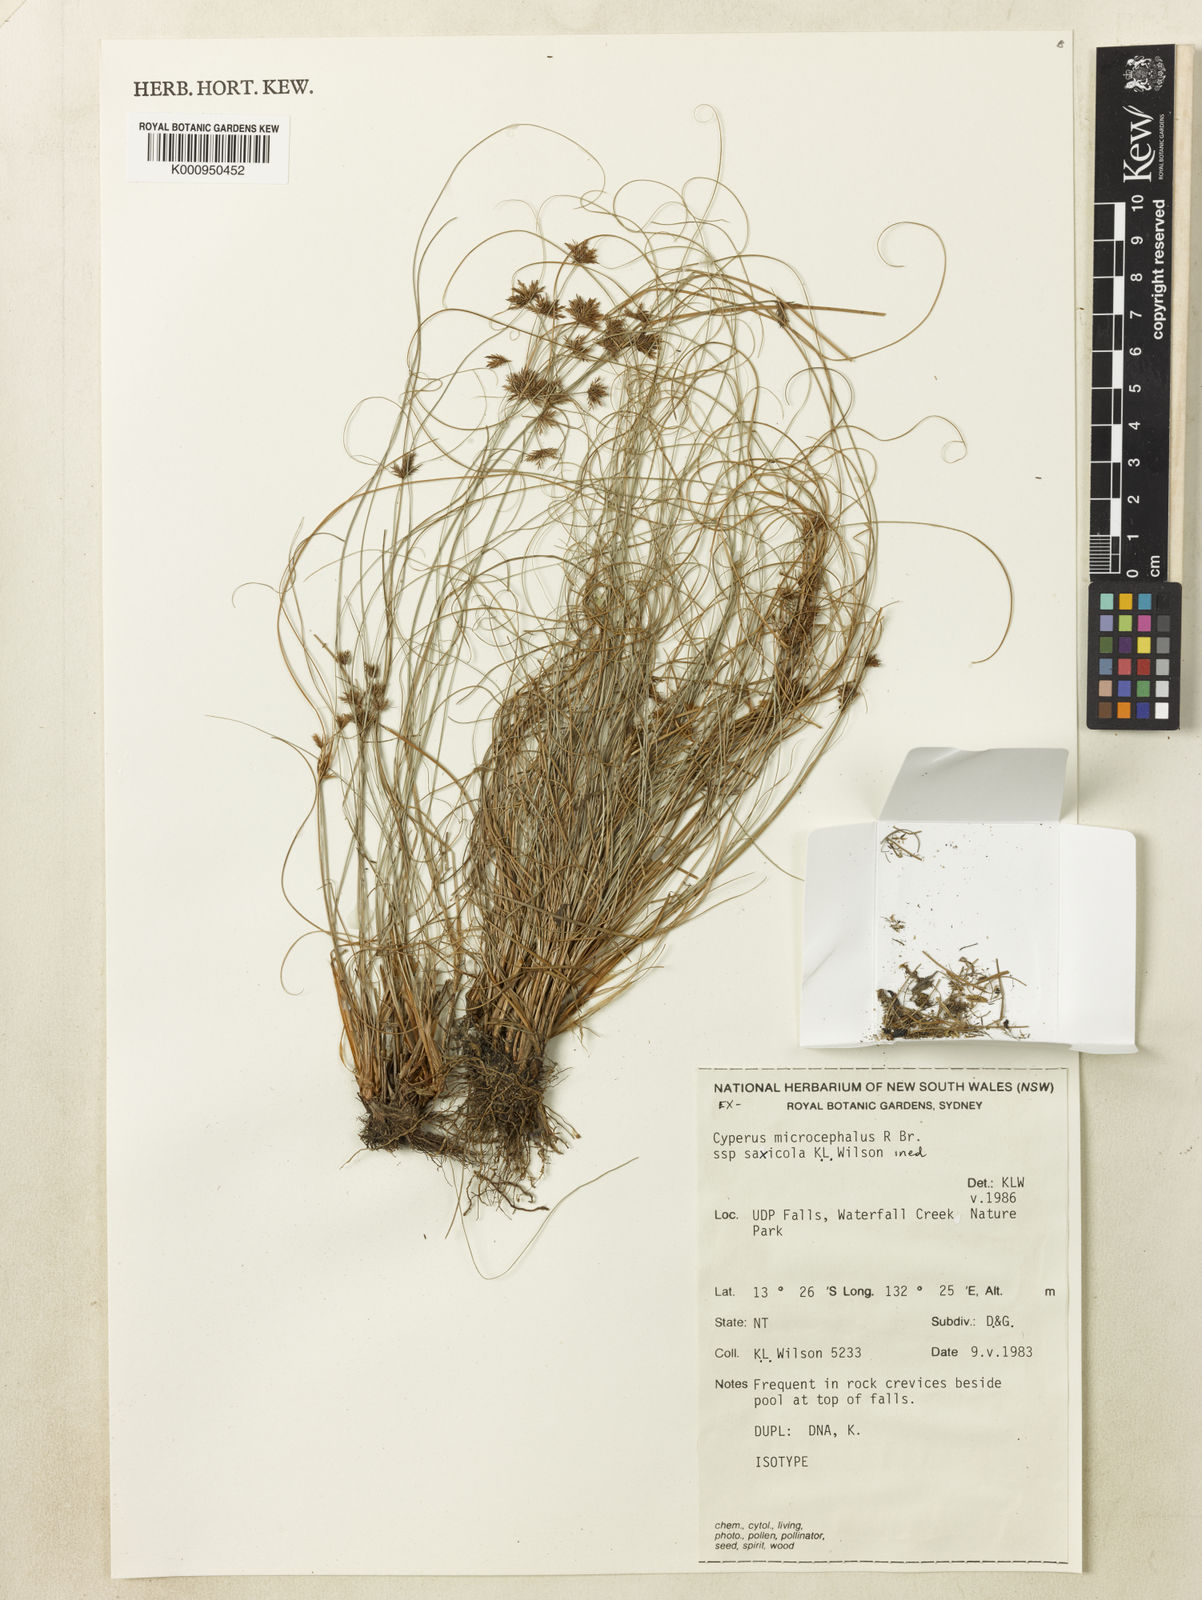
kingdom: Plantae
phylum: Tracheophyta
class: Liliopsida
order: Poales
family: Cyperaceae
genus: Cyperus
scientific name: Cyperus microcephalus
